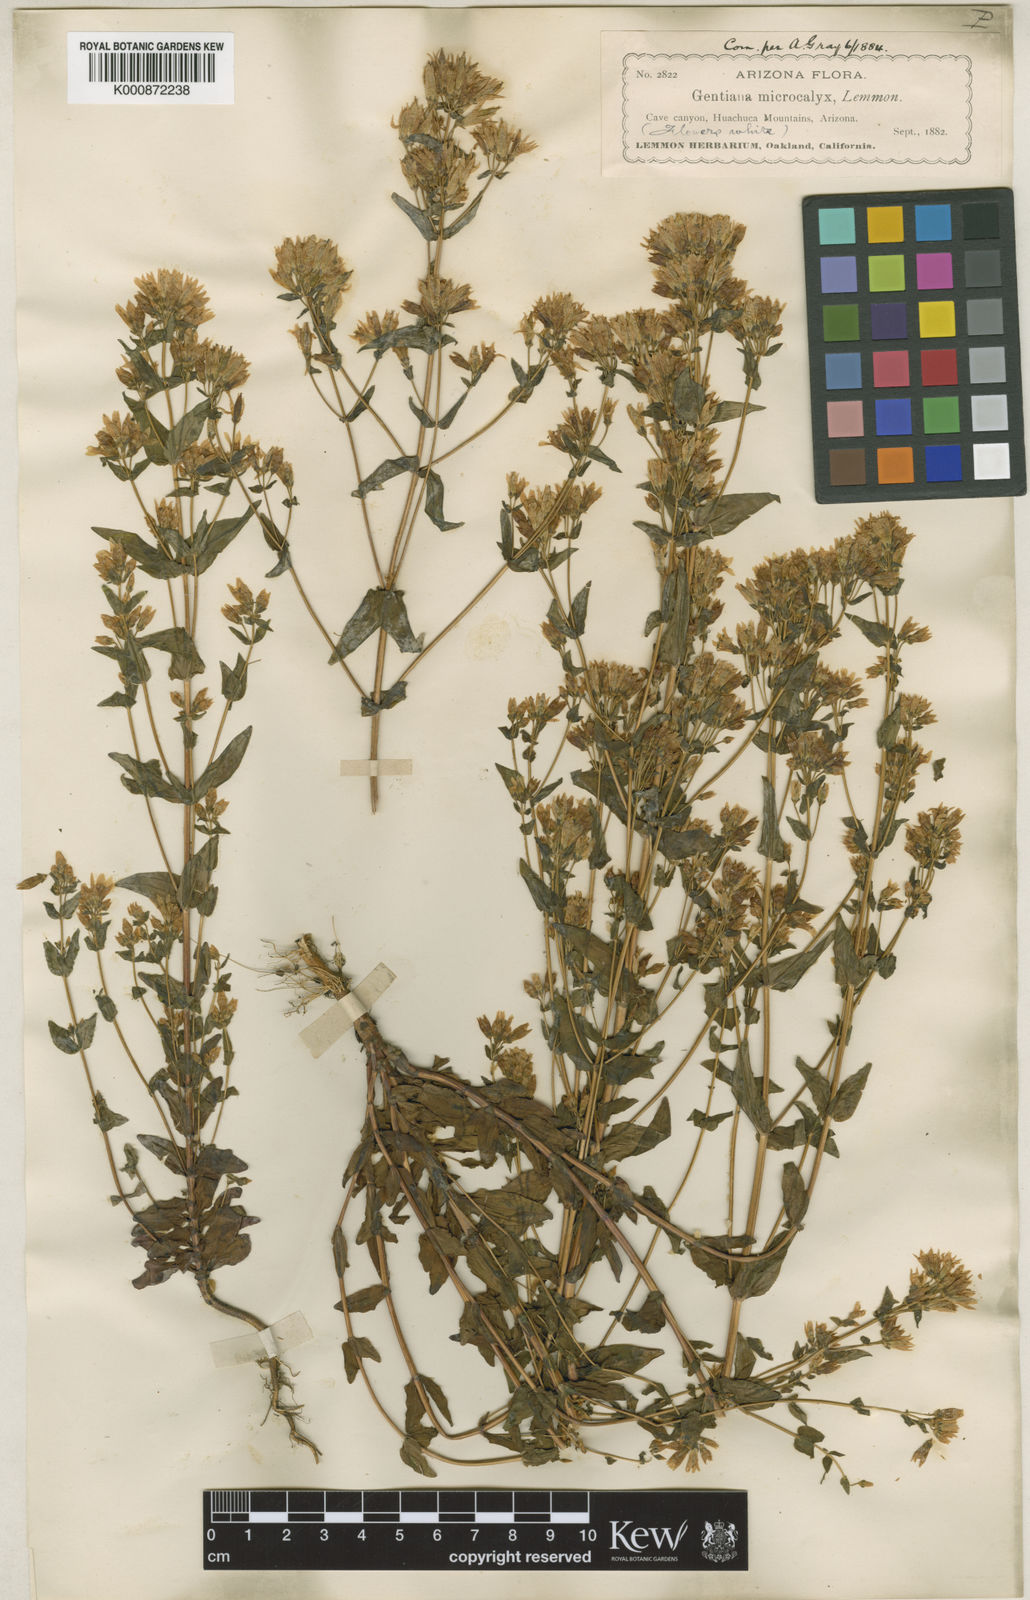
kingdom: Plantae
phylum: Tracheophyta
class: Magnoliopsida
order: Gentianales
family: Gentianaceae
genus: Gentianella
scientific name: Gentianella microcalyx
